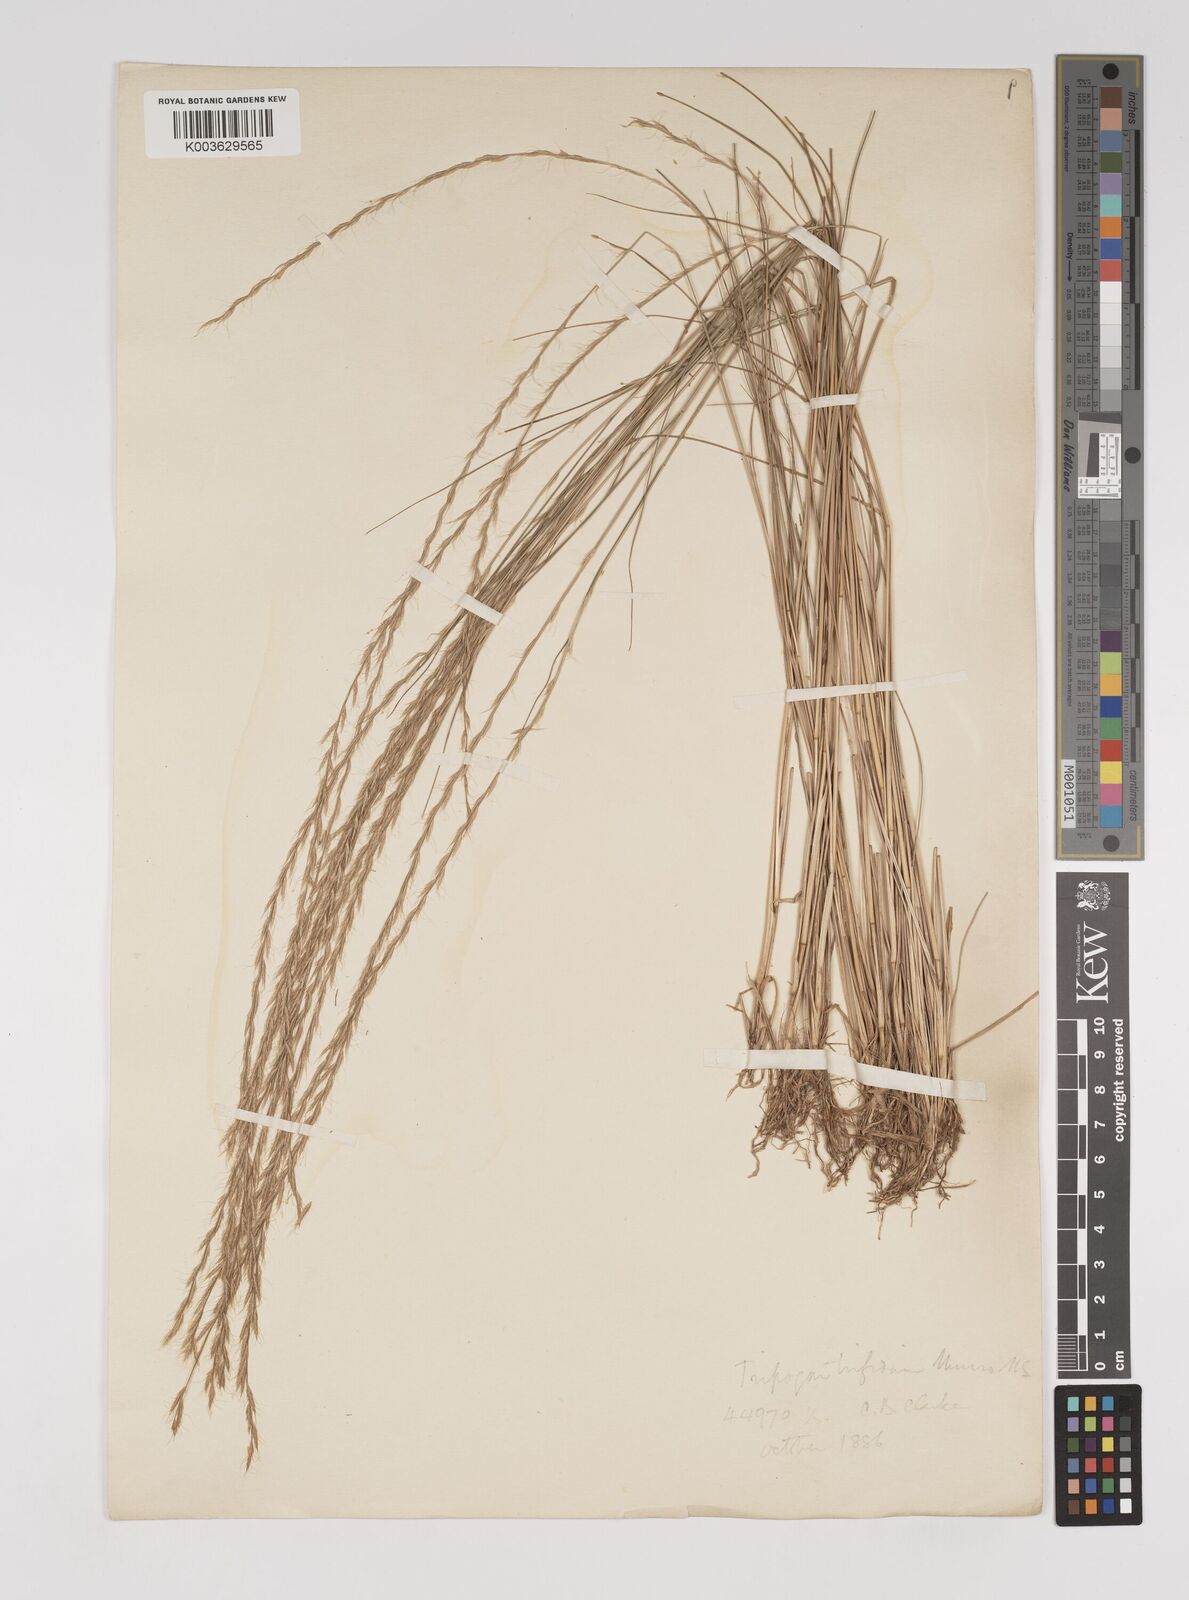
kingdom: Plantae
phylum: Tracheophyta
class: Liliopsida
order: Poales
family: Poaceae
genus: Tripogon
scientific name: Tripogon filiformis
